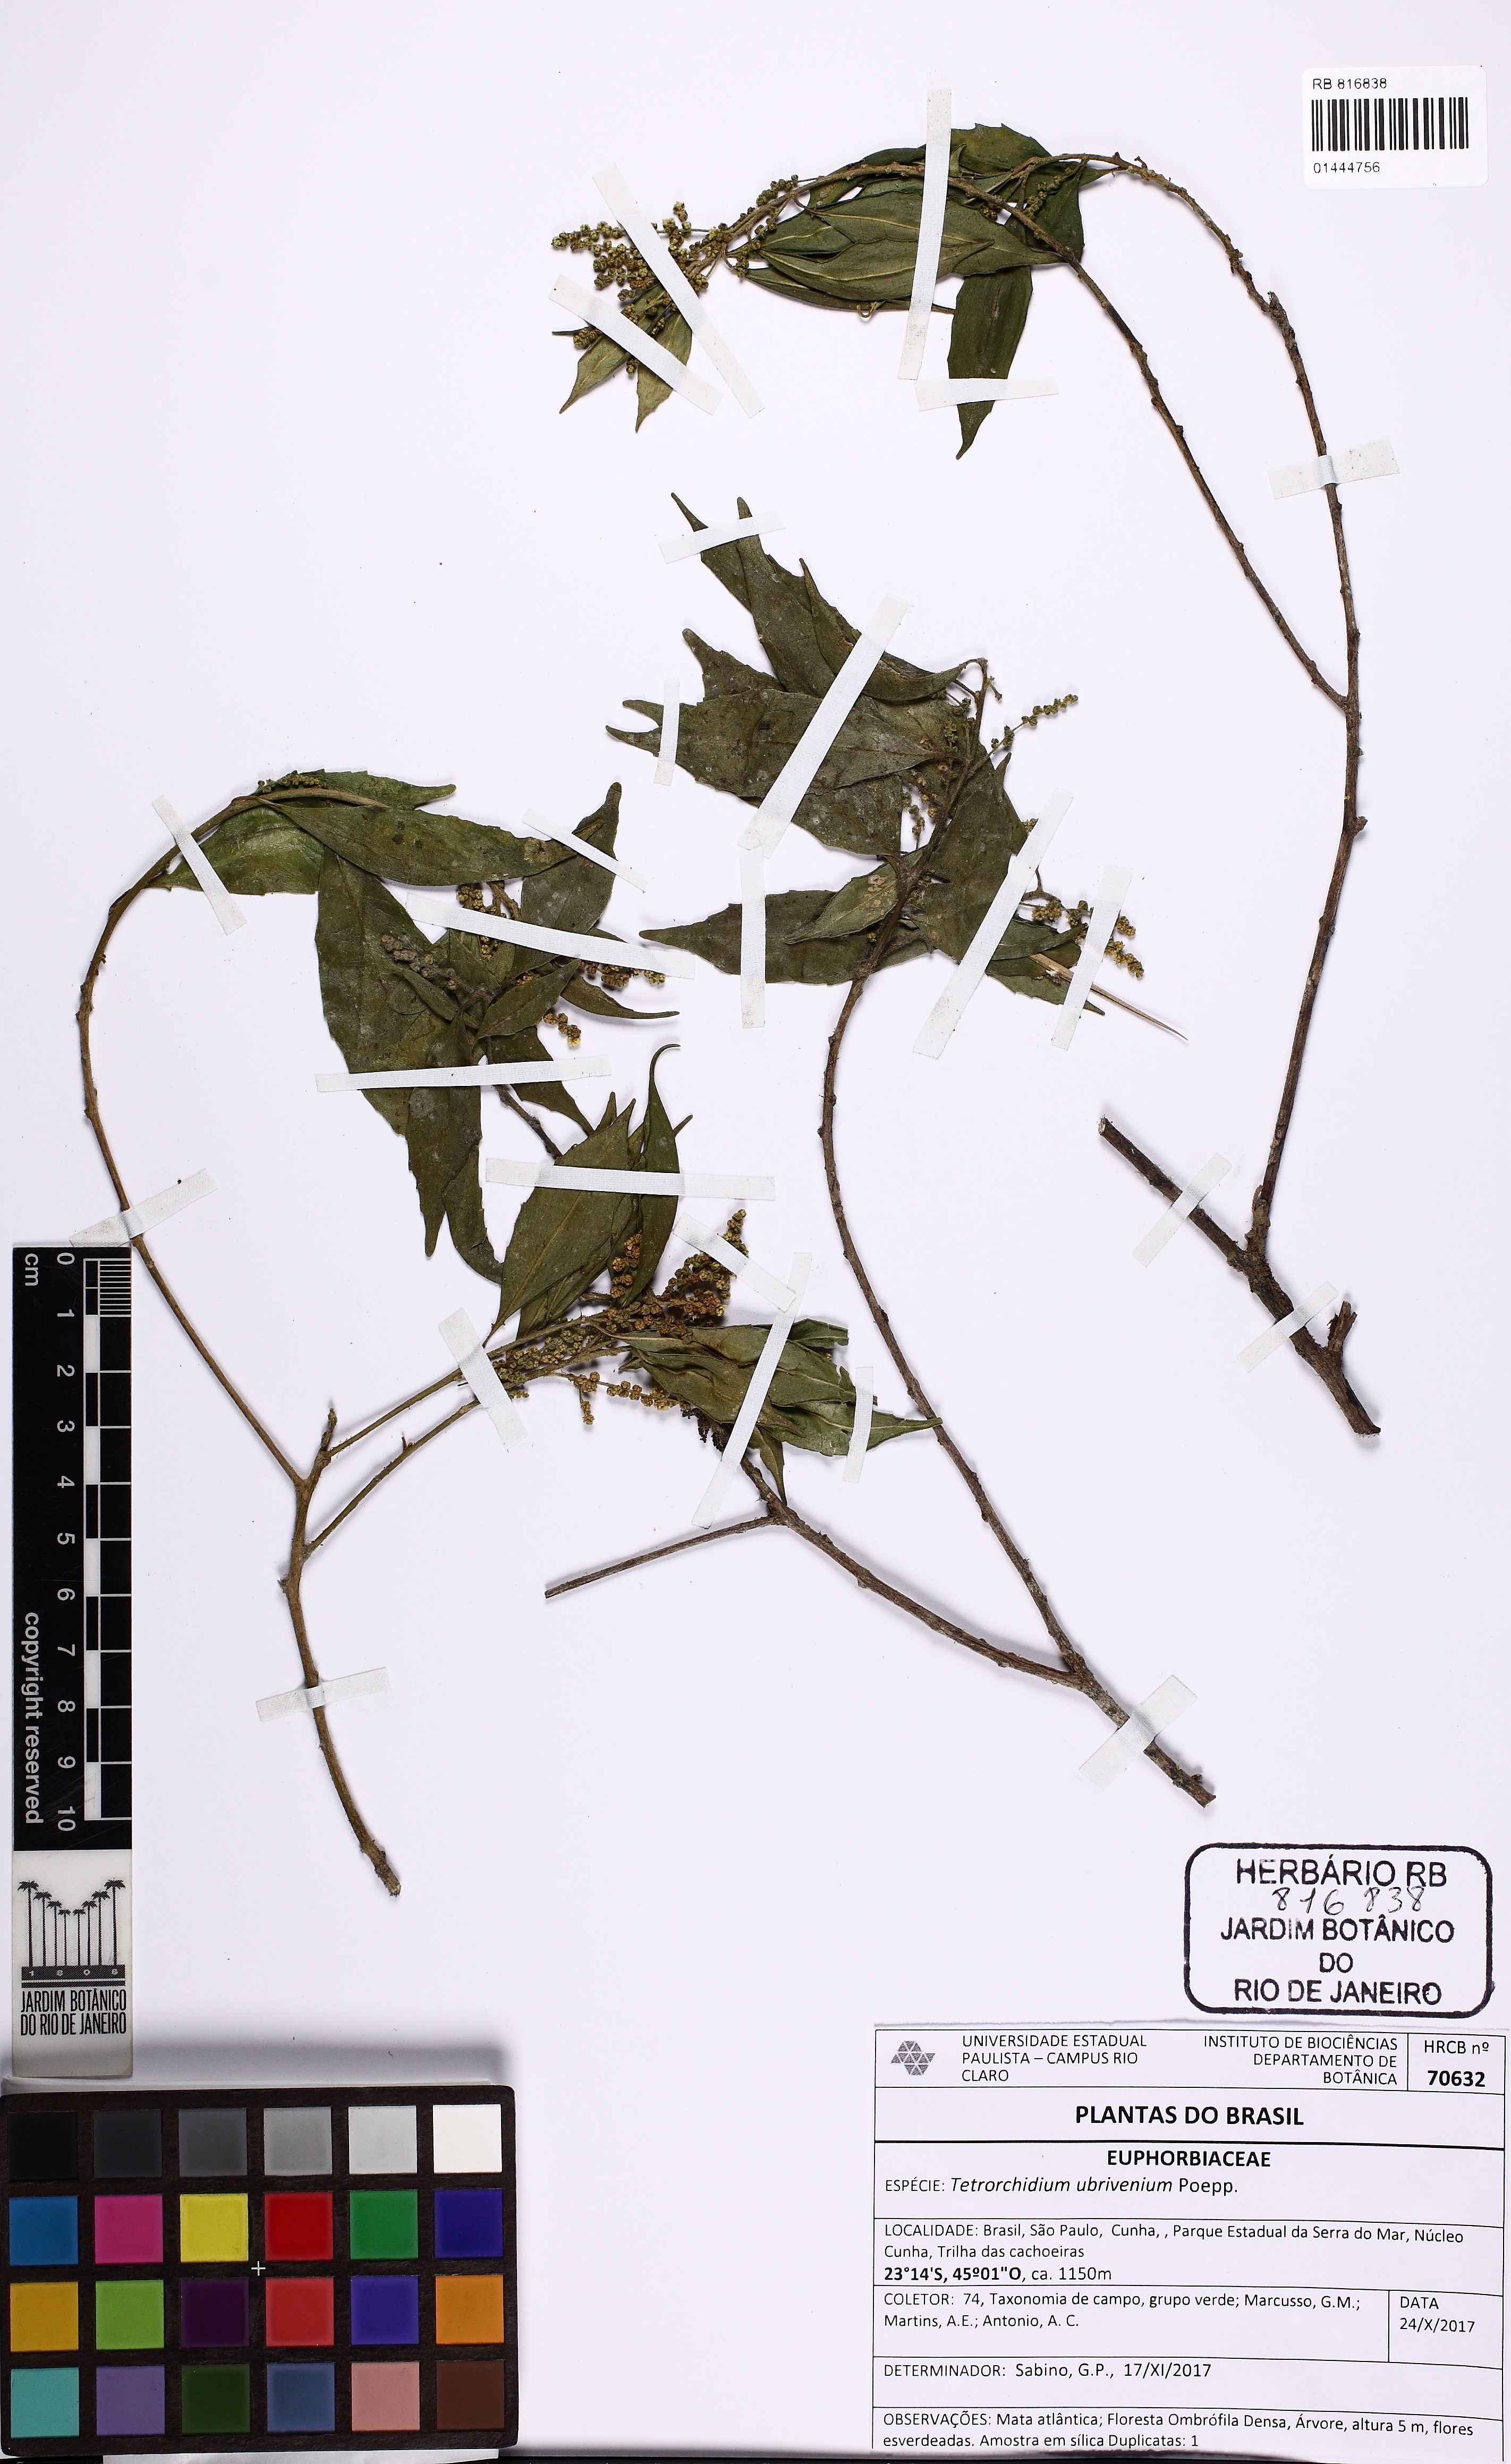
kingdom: Plantae
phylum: Tracheophyta
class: Magnoliopsida
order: Malpighiales
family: Euphorbiaceae
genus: Tetrorchidium
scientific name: Tetrorchidium rubrivenium
